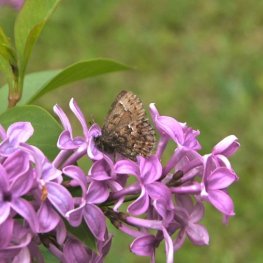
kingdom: Animalia
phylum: Arthropoda
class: Insecta
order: Lepidoptera
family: Lycaenidae
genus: Incisalia
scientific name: Incisalia lanoraieensis
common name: Bog Elfin
